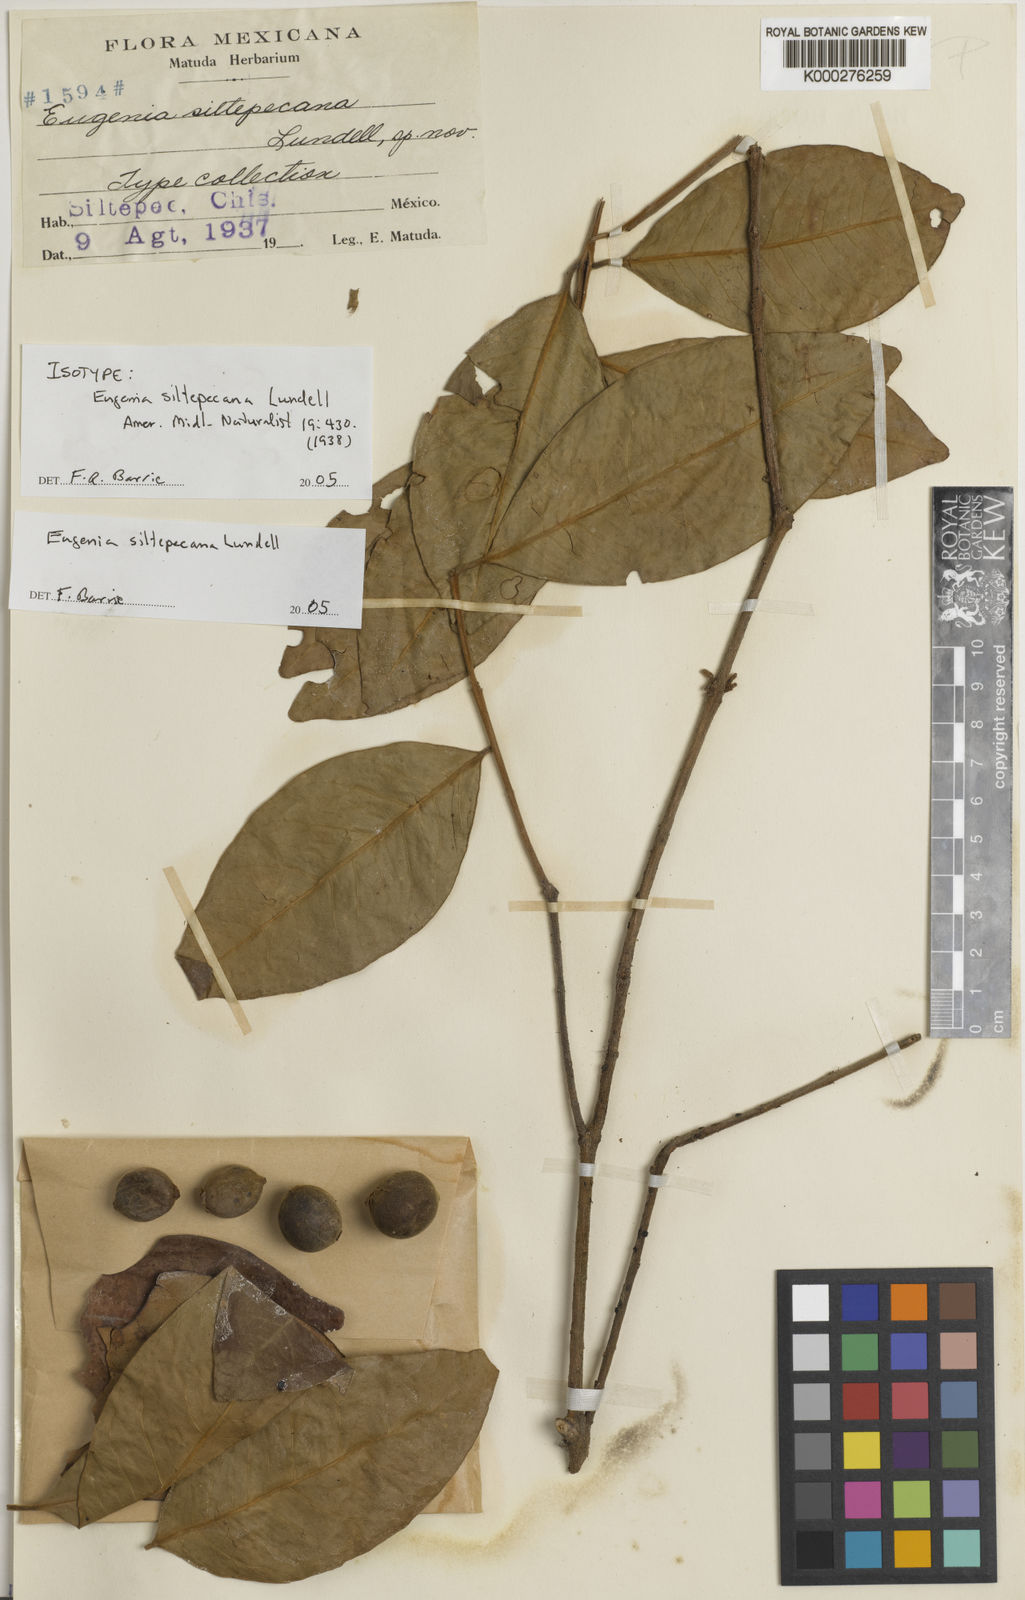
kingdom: Plantae
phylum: Tracheophyta
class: Magnoliopsida
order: Myrtales
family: Myrtaceae
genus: Eugenia
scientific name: Eugenia siltepecana
